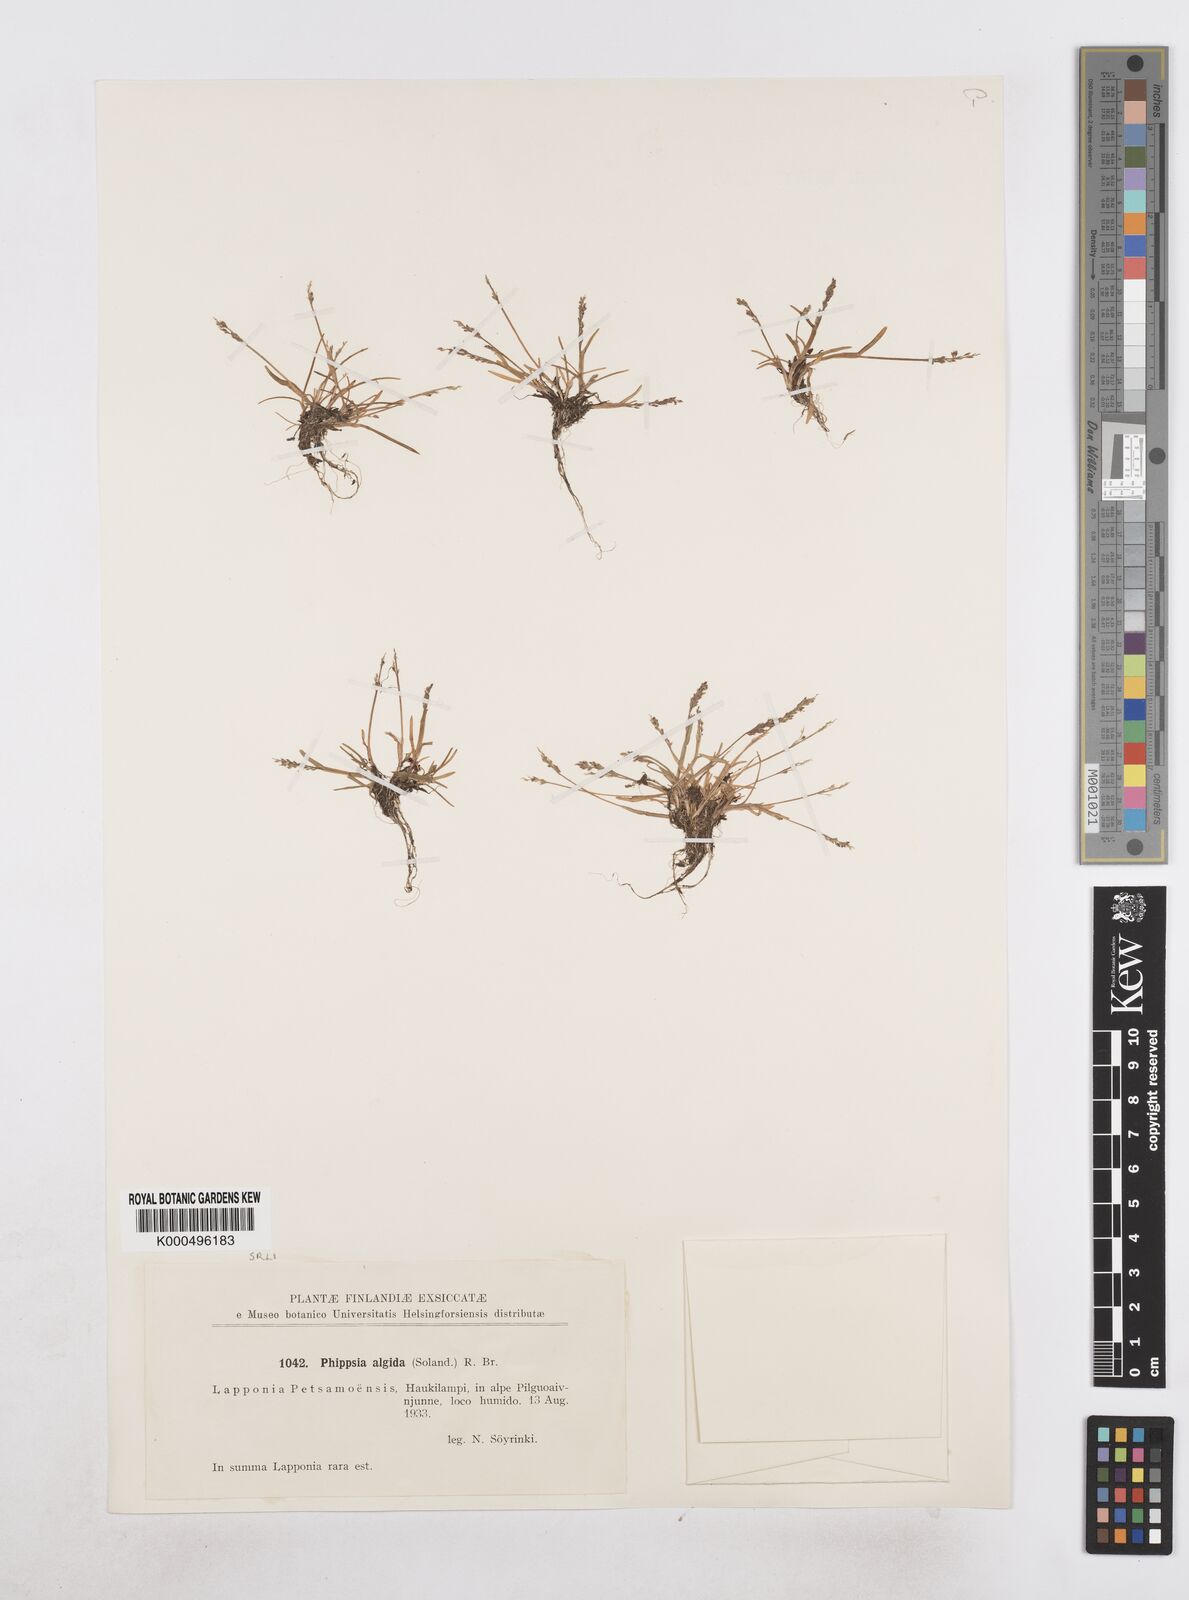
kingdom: Plantae
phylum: Tracheophyta
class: Liliopsida
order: Poales
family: Poaceae
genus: Phippsia
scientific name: Phippsia algida
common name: Ice grass
